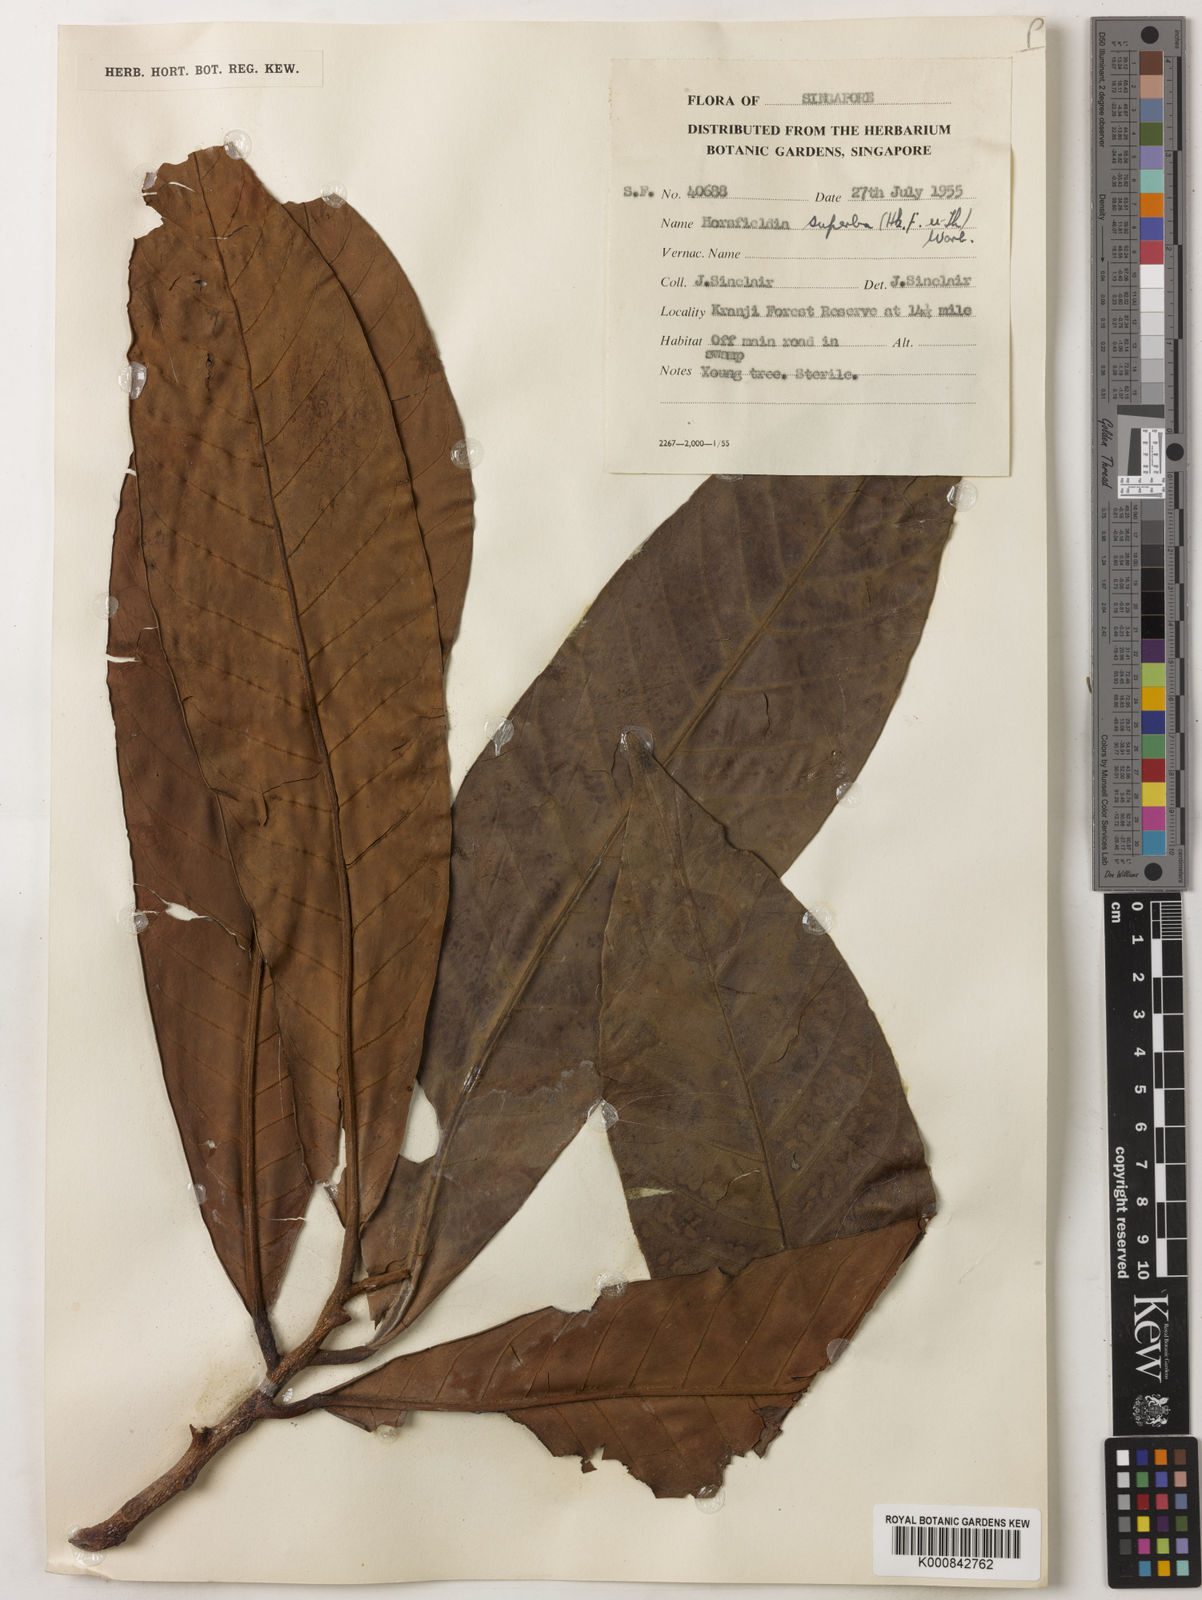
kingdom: Plantae
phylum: Tracheophyta
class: Magnoliopsida
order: Magnoliales
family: Myristicaceae
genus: Horsfieldia
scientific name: Horsfieldia superba
